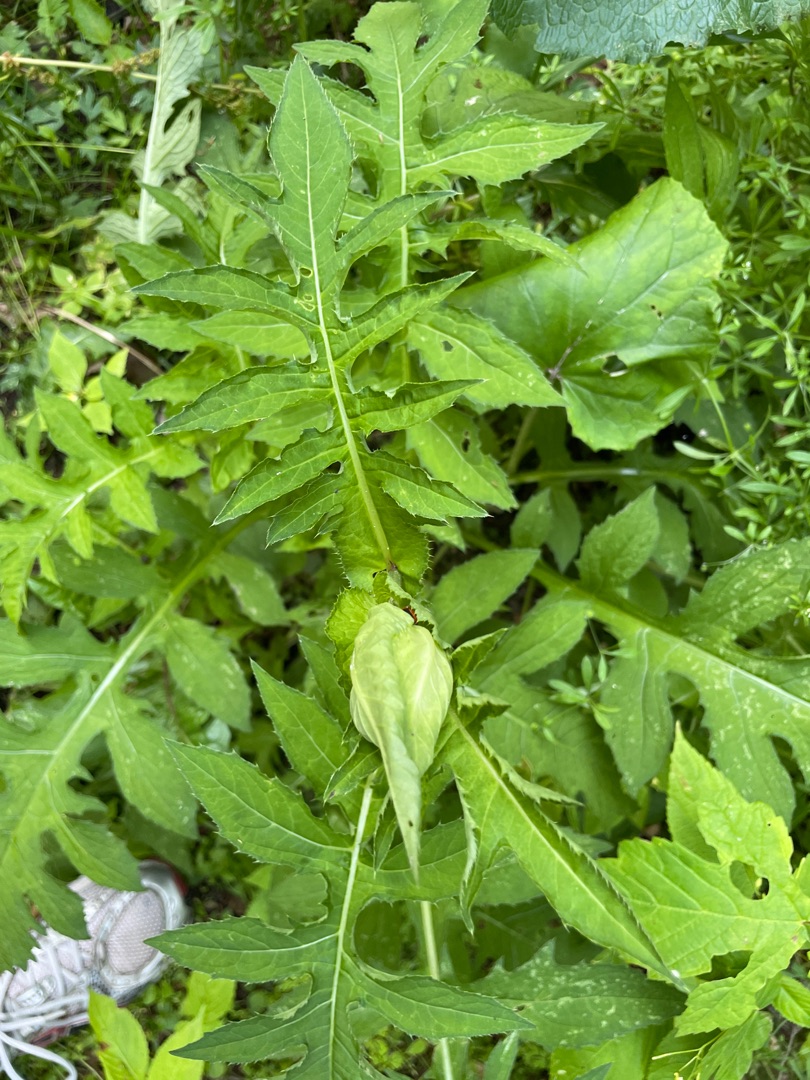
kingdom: Plantae
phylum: Tracheophyta
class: Magnoliopsida
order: Asterales
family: Asteraceae
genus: Cirsium
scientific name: Cirsium oleraceum
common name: Kål-tidsel
